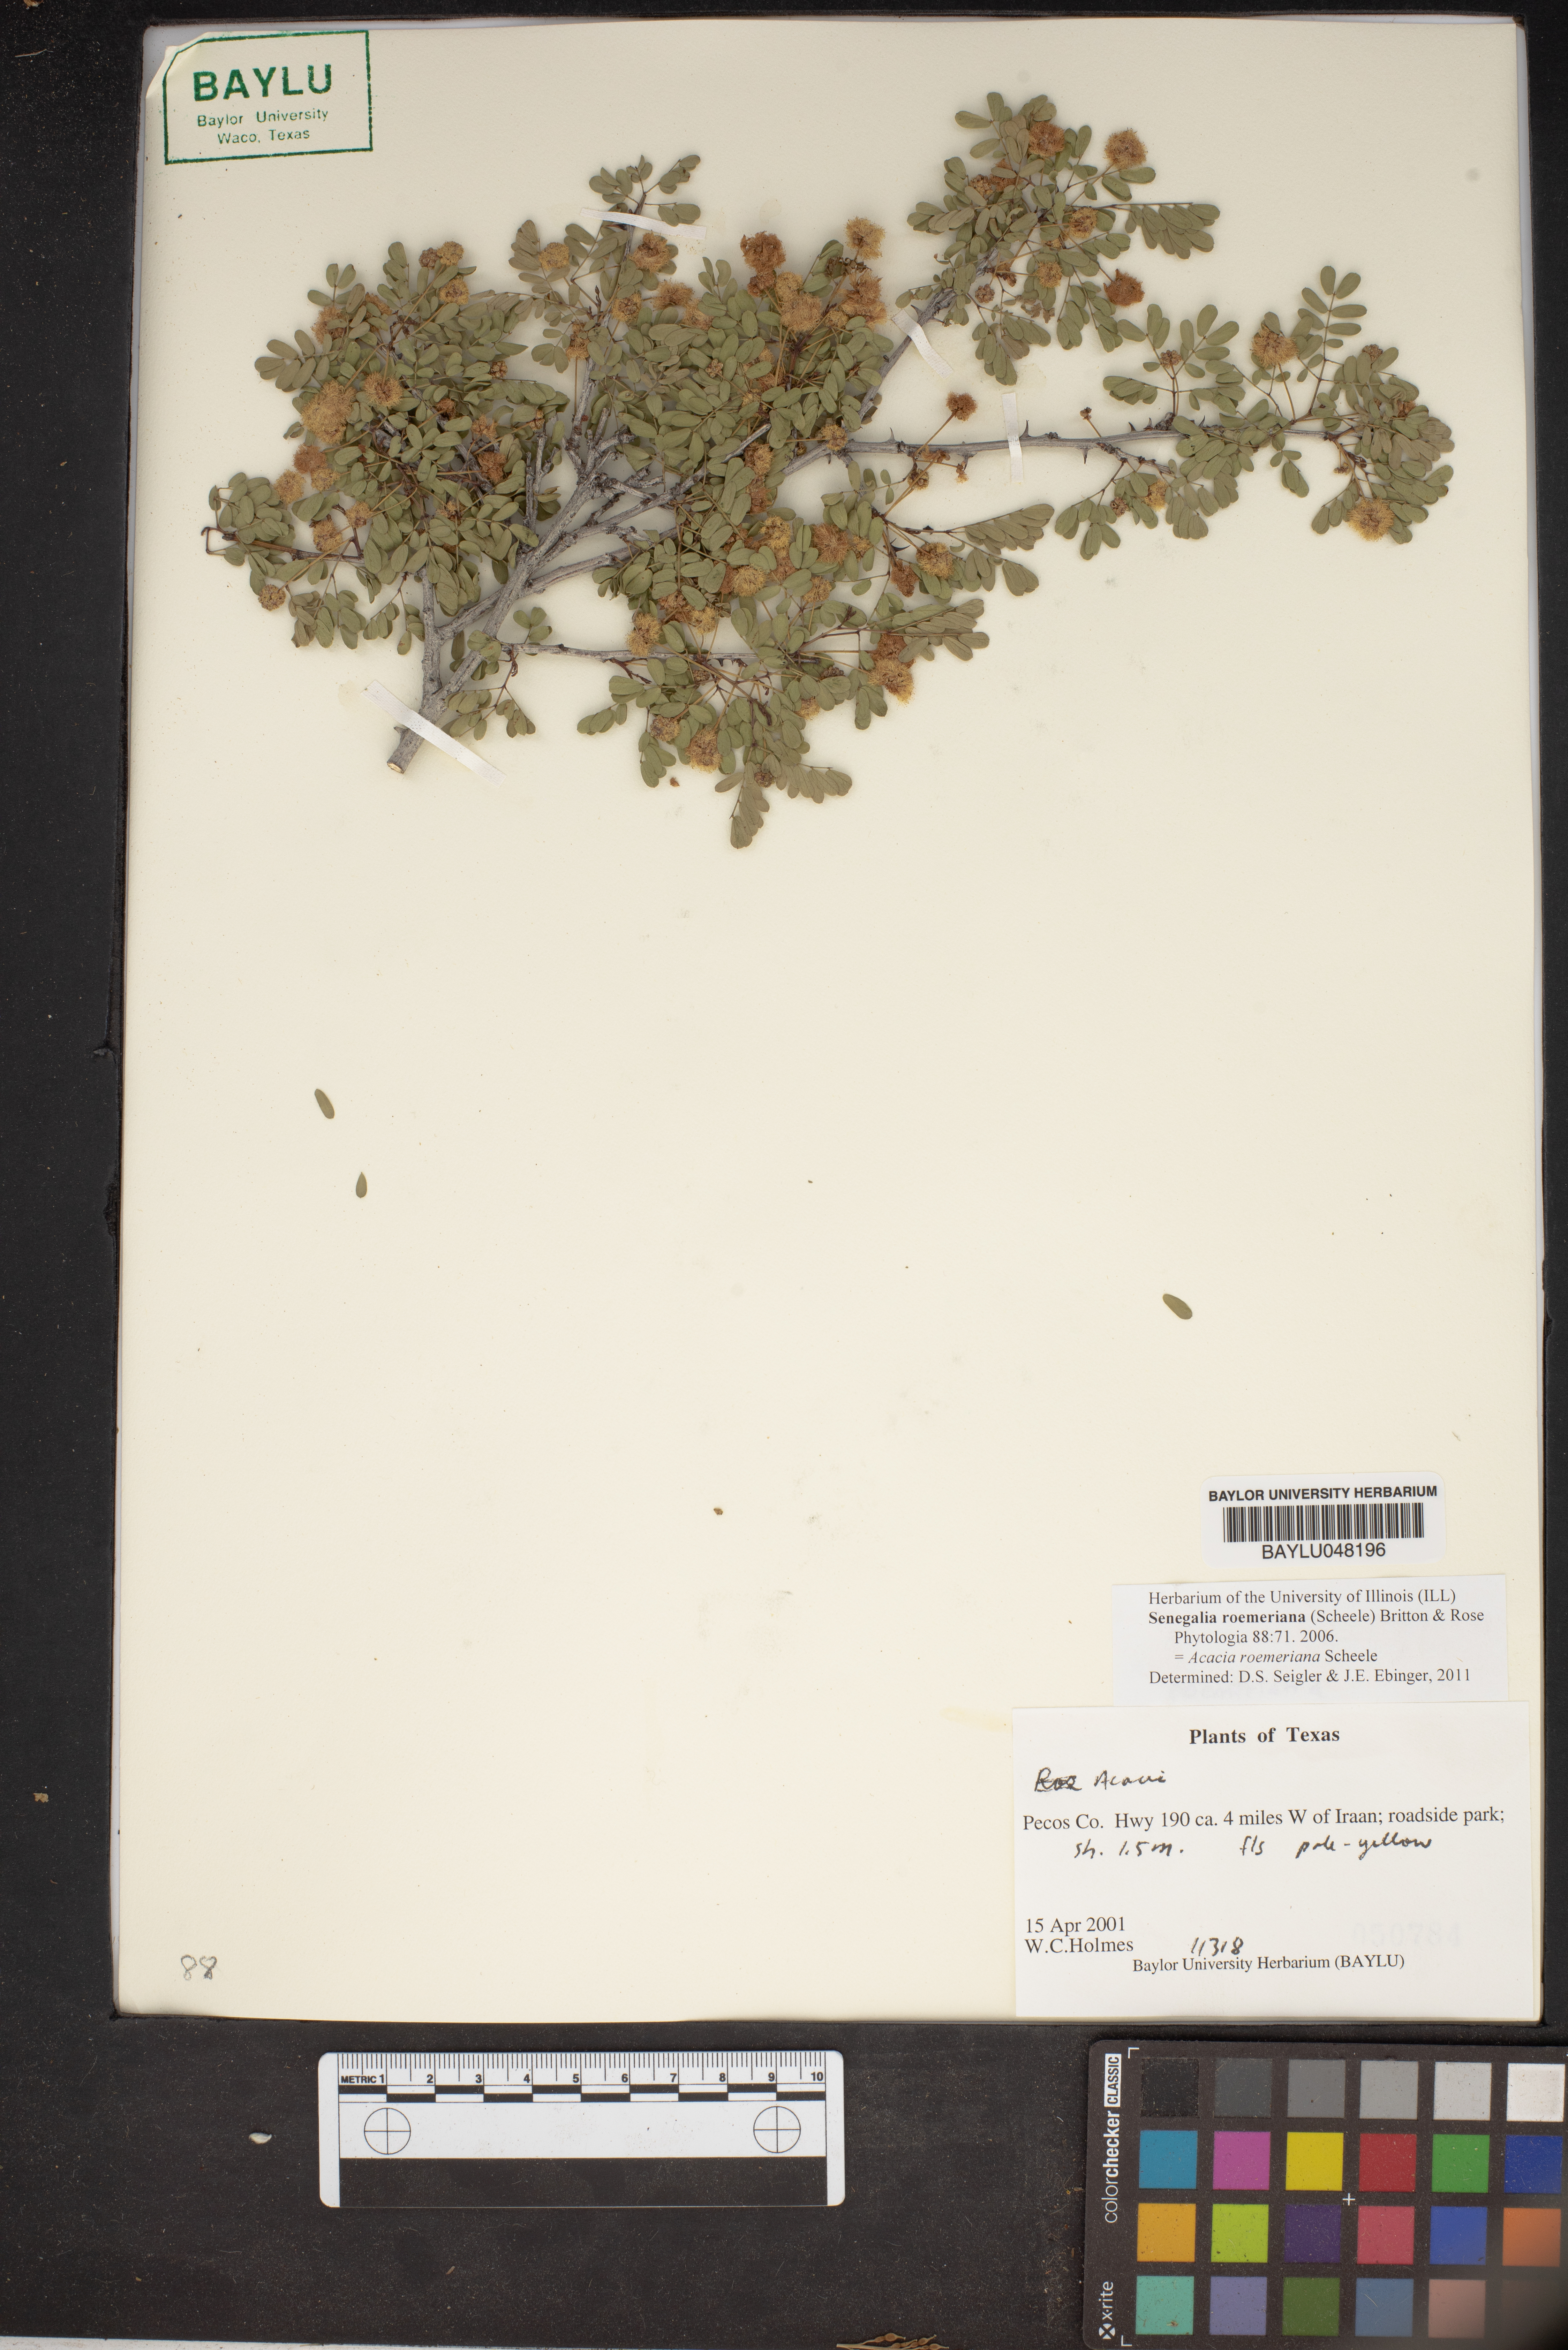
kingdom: Plantae
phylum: Tracheophyta
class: Magnoliopsida
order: Fabales
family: Fabaceae
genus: Senegalia
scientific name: Senegalia roemeriana
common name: Roemer's acacia
